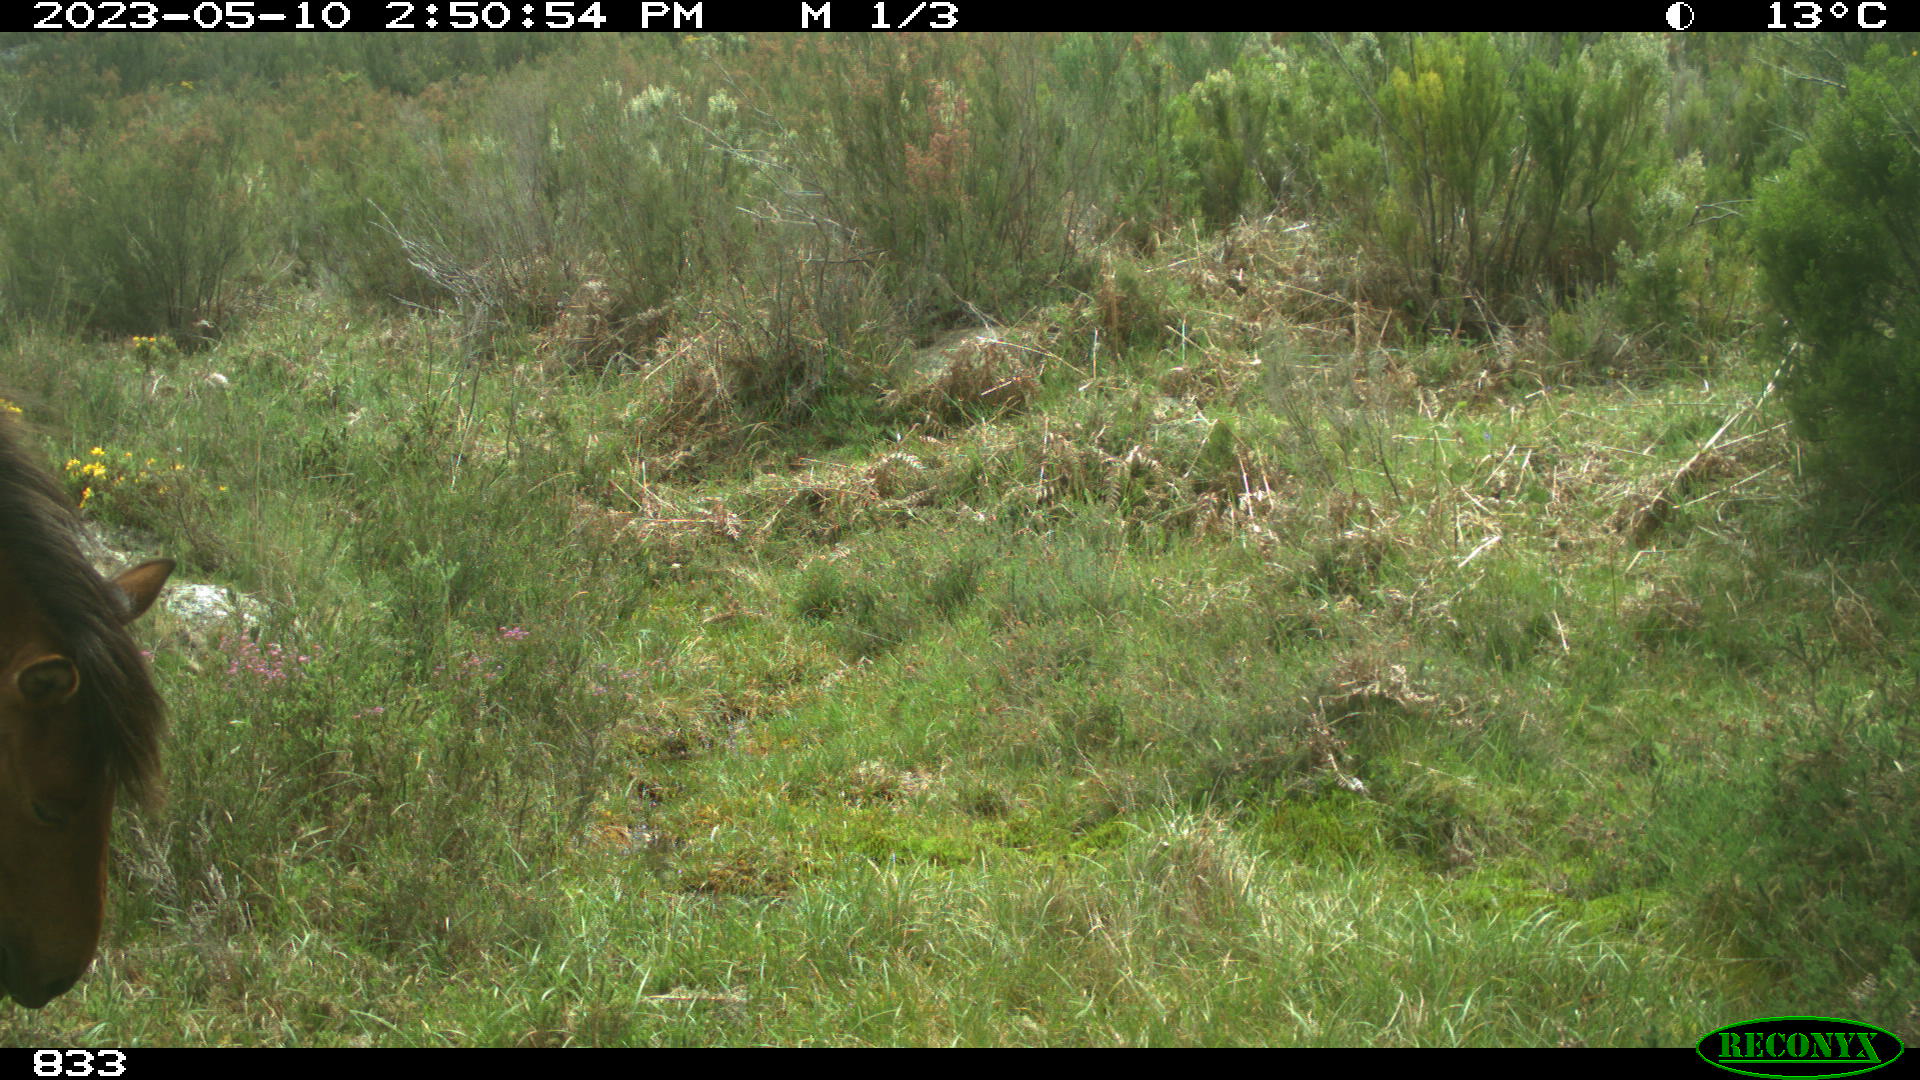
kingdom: Animalia
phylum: Chordata
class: Mammalia
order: Perissodactyla
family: Equidae
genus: Equus
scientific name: Equus caballus
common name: Horse
